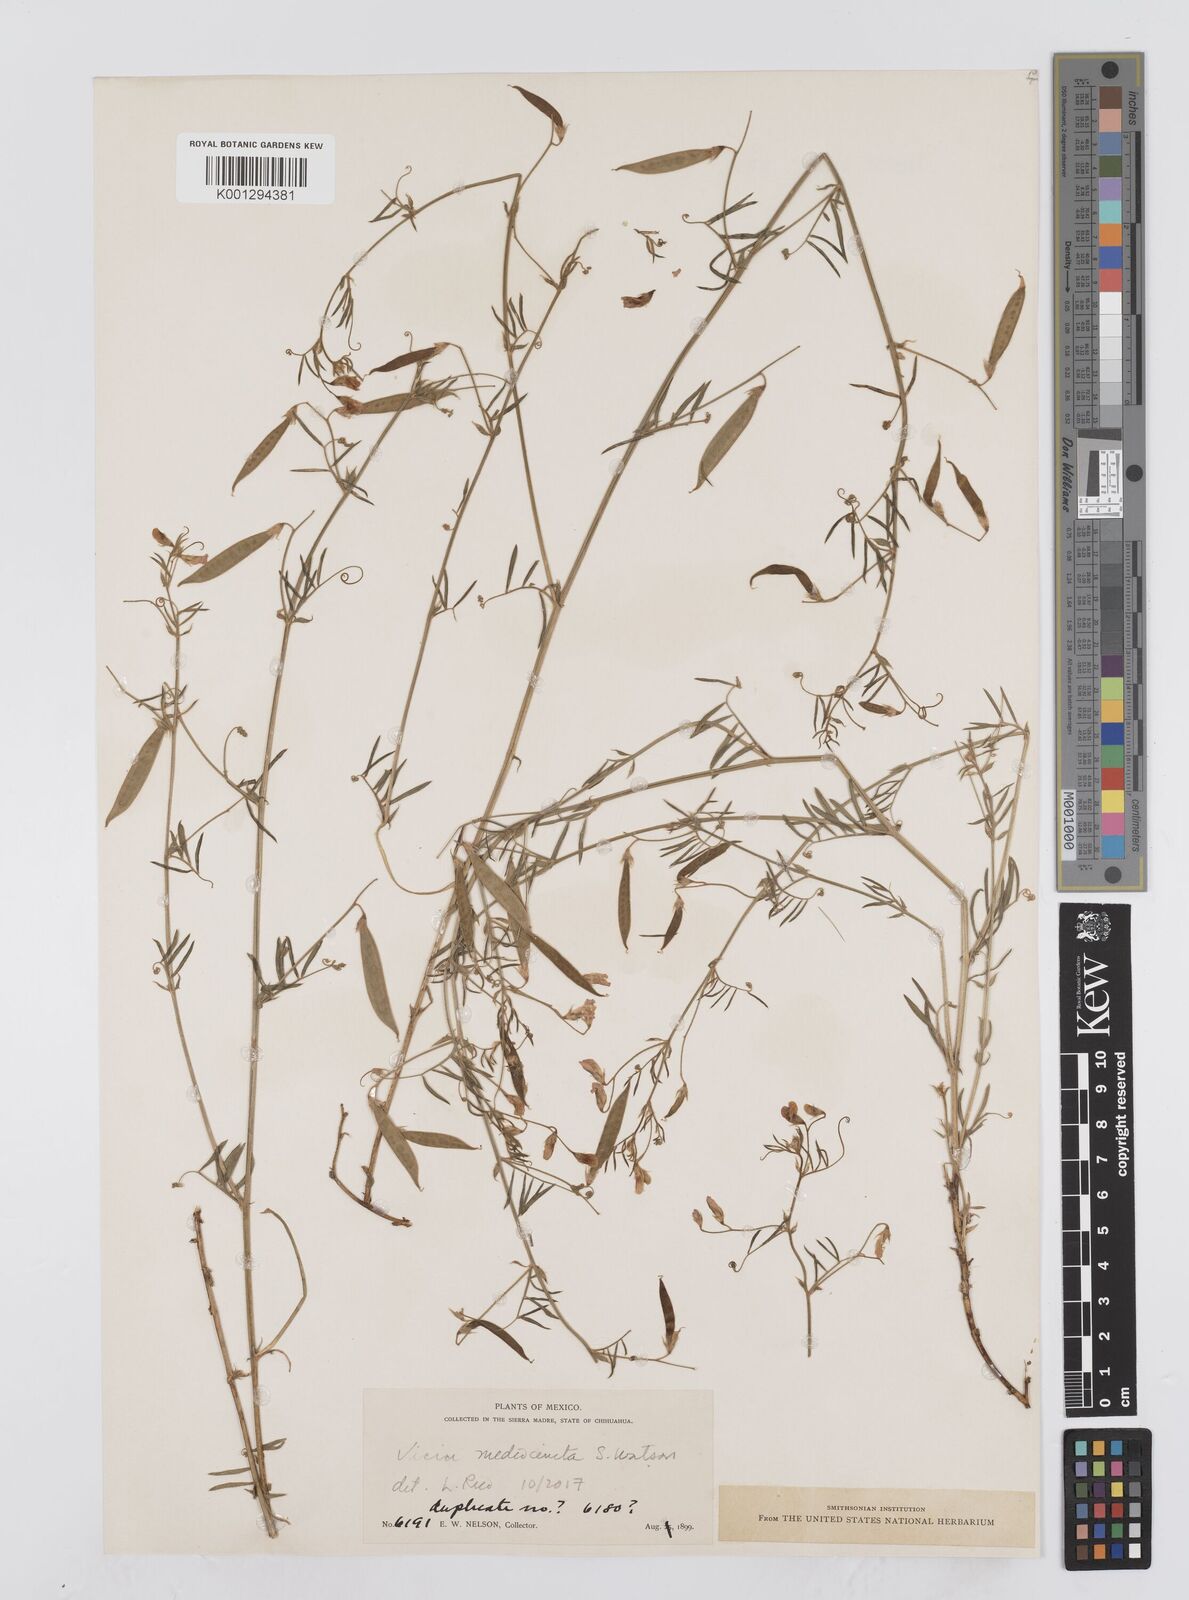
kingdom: Plantae
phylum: Tracheophyta
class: Magnoliopsida
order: Fabales
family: Fabaceae
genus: Vicia
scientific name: Vicia
